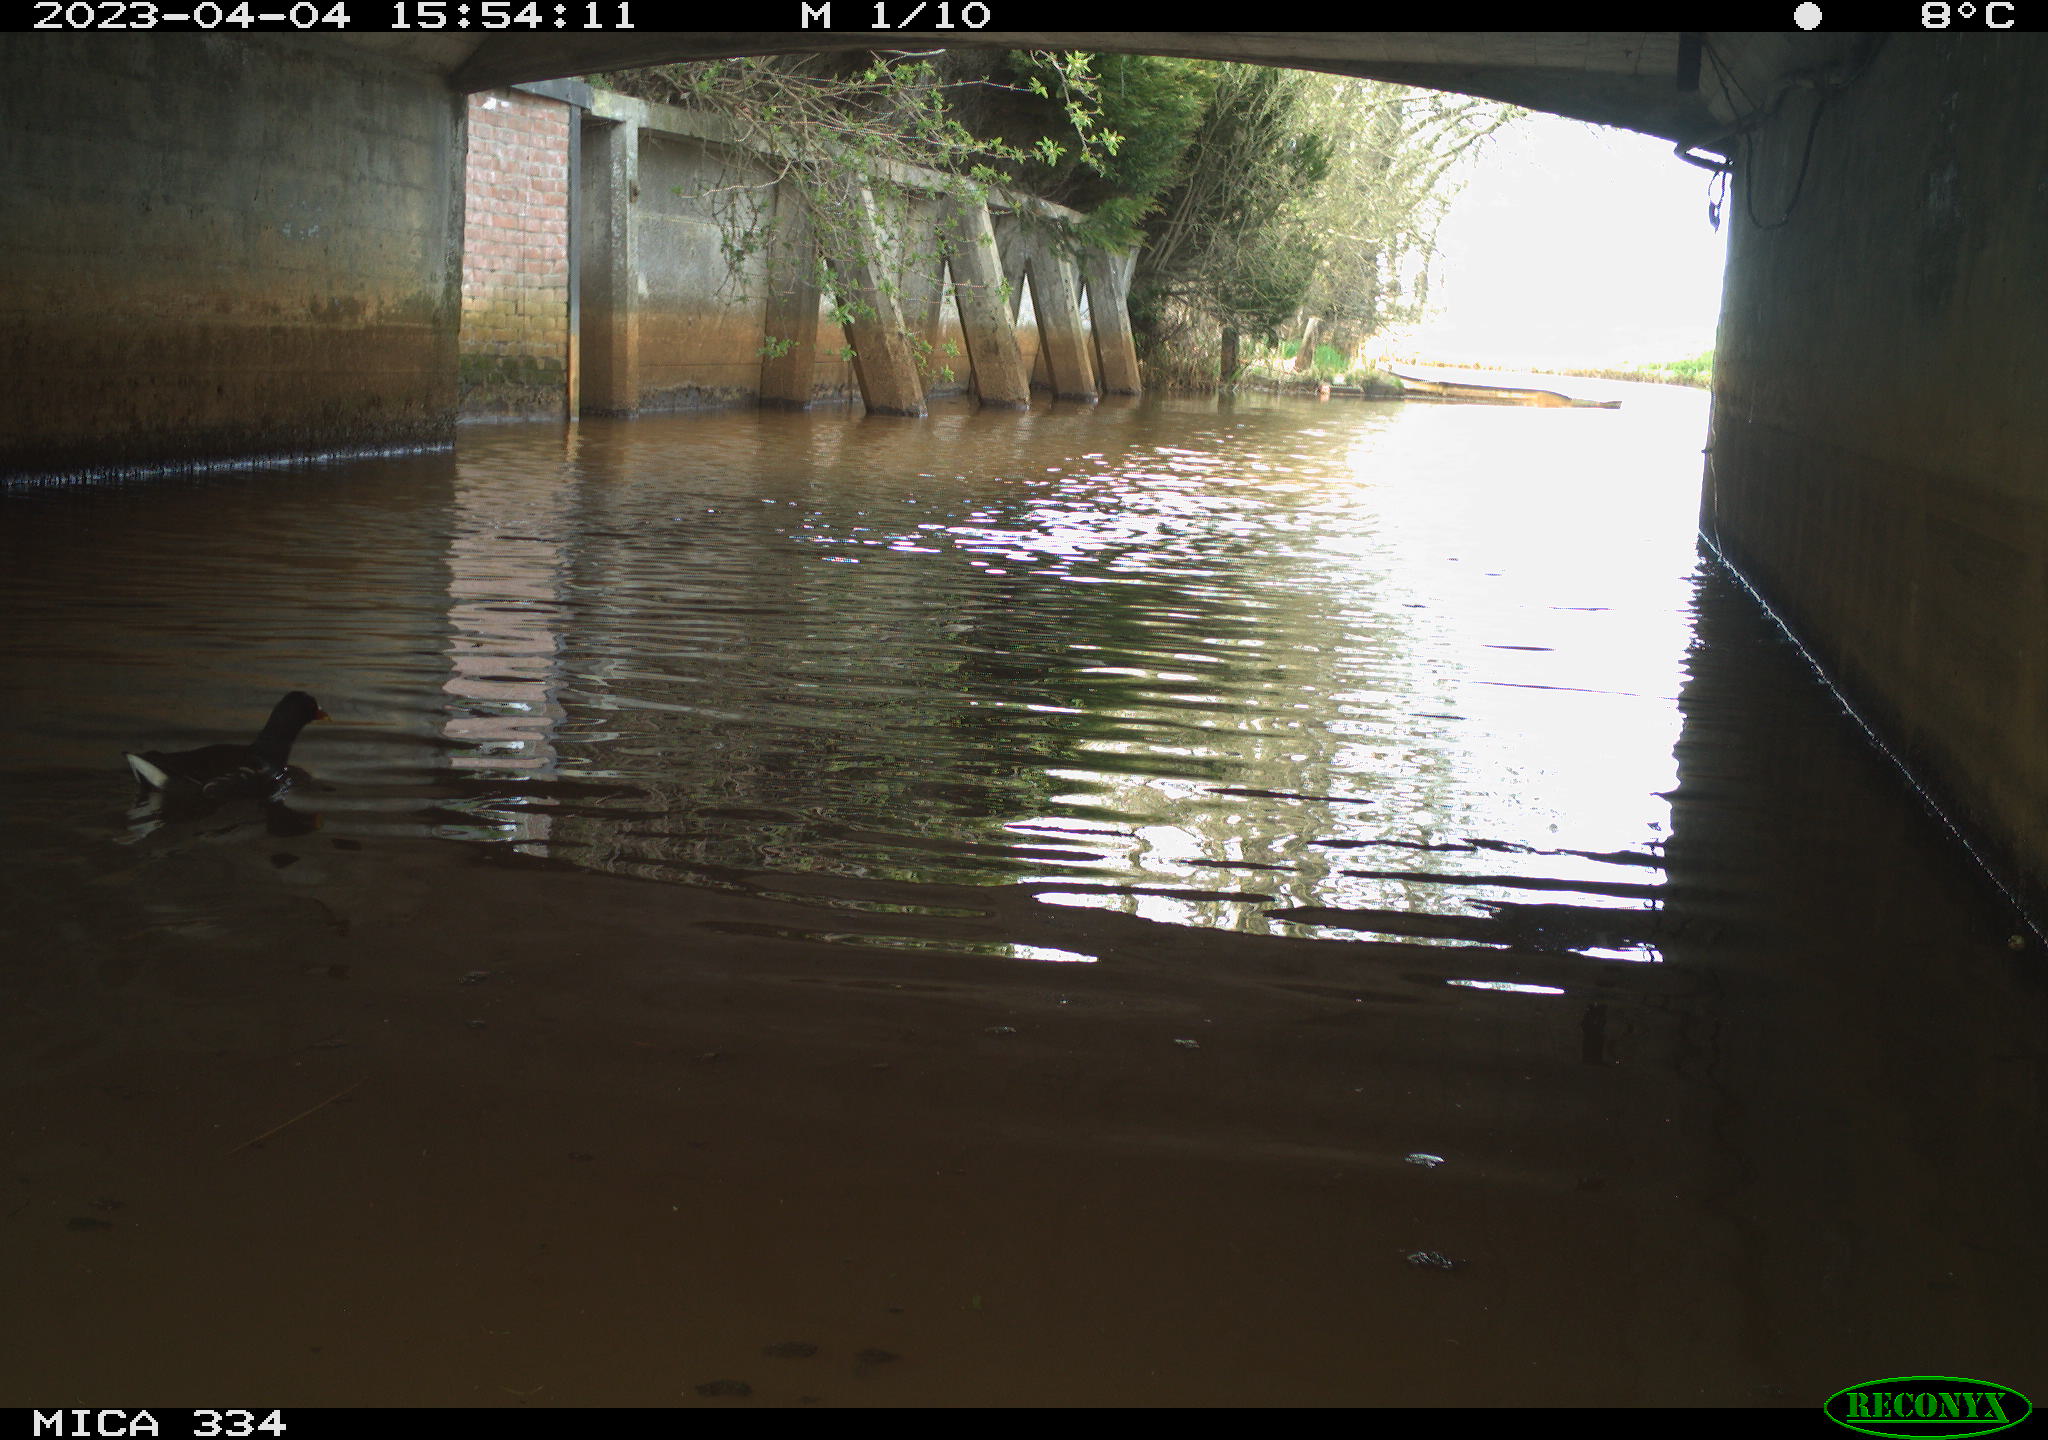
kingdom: Animalia
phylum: Chordata
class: Aves
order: Gruiformes
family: Rallidae
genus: Gallinula
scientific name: Gallinula chloropus
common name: Common moorhen
